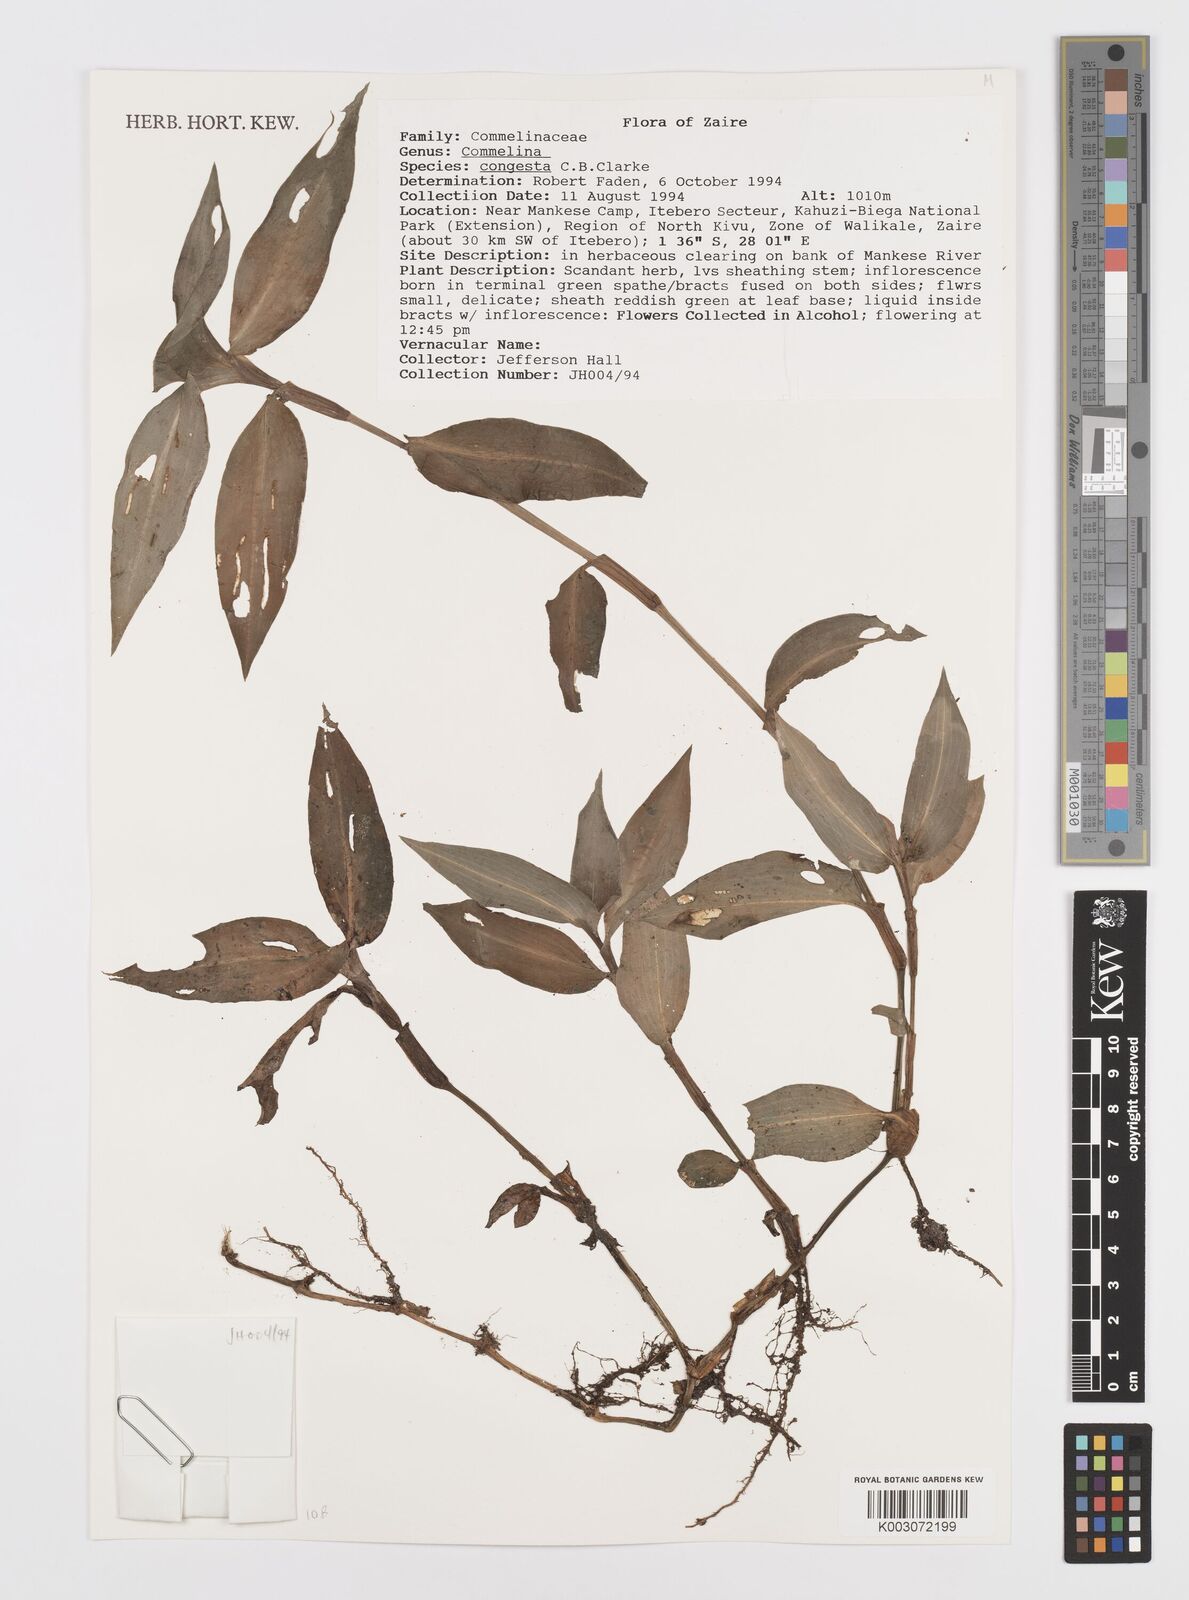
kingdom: Plantae
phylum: Tracheophyta
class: Liliopsida
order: Commelinales
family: Commelinaceae
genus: Commelina
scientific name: Commelina congesta
